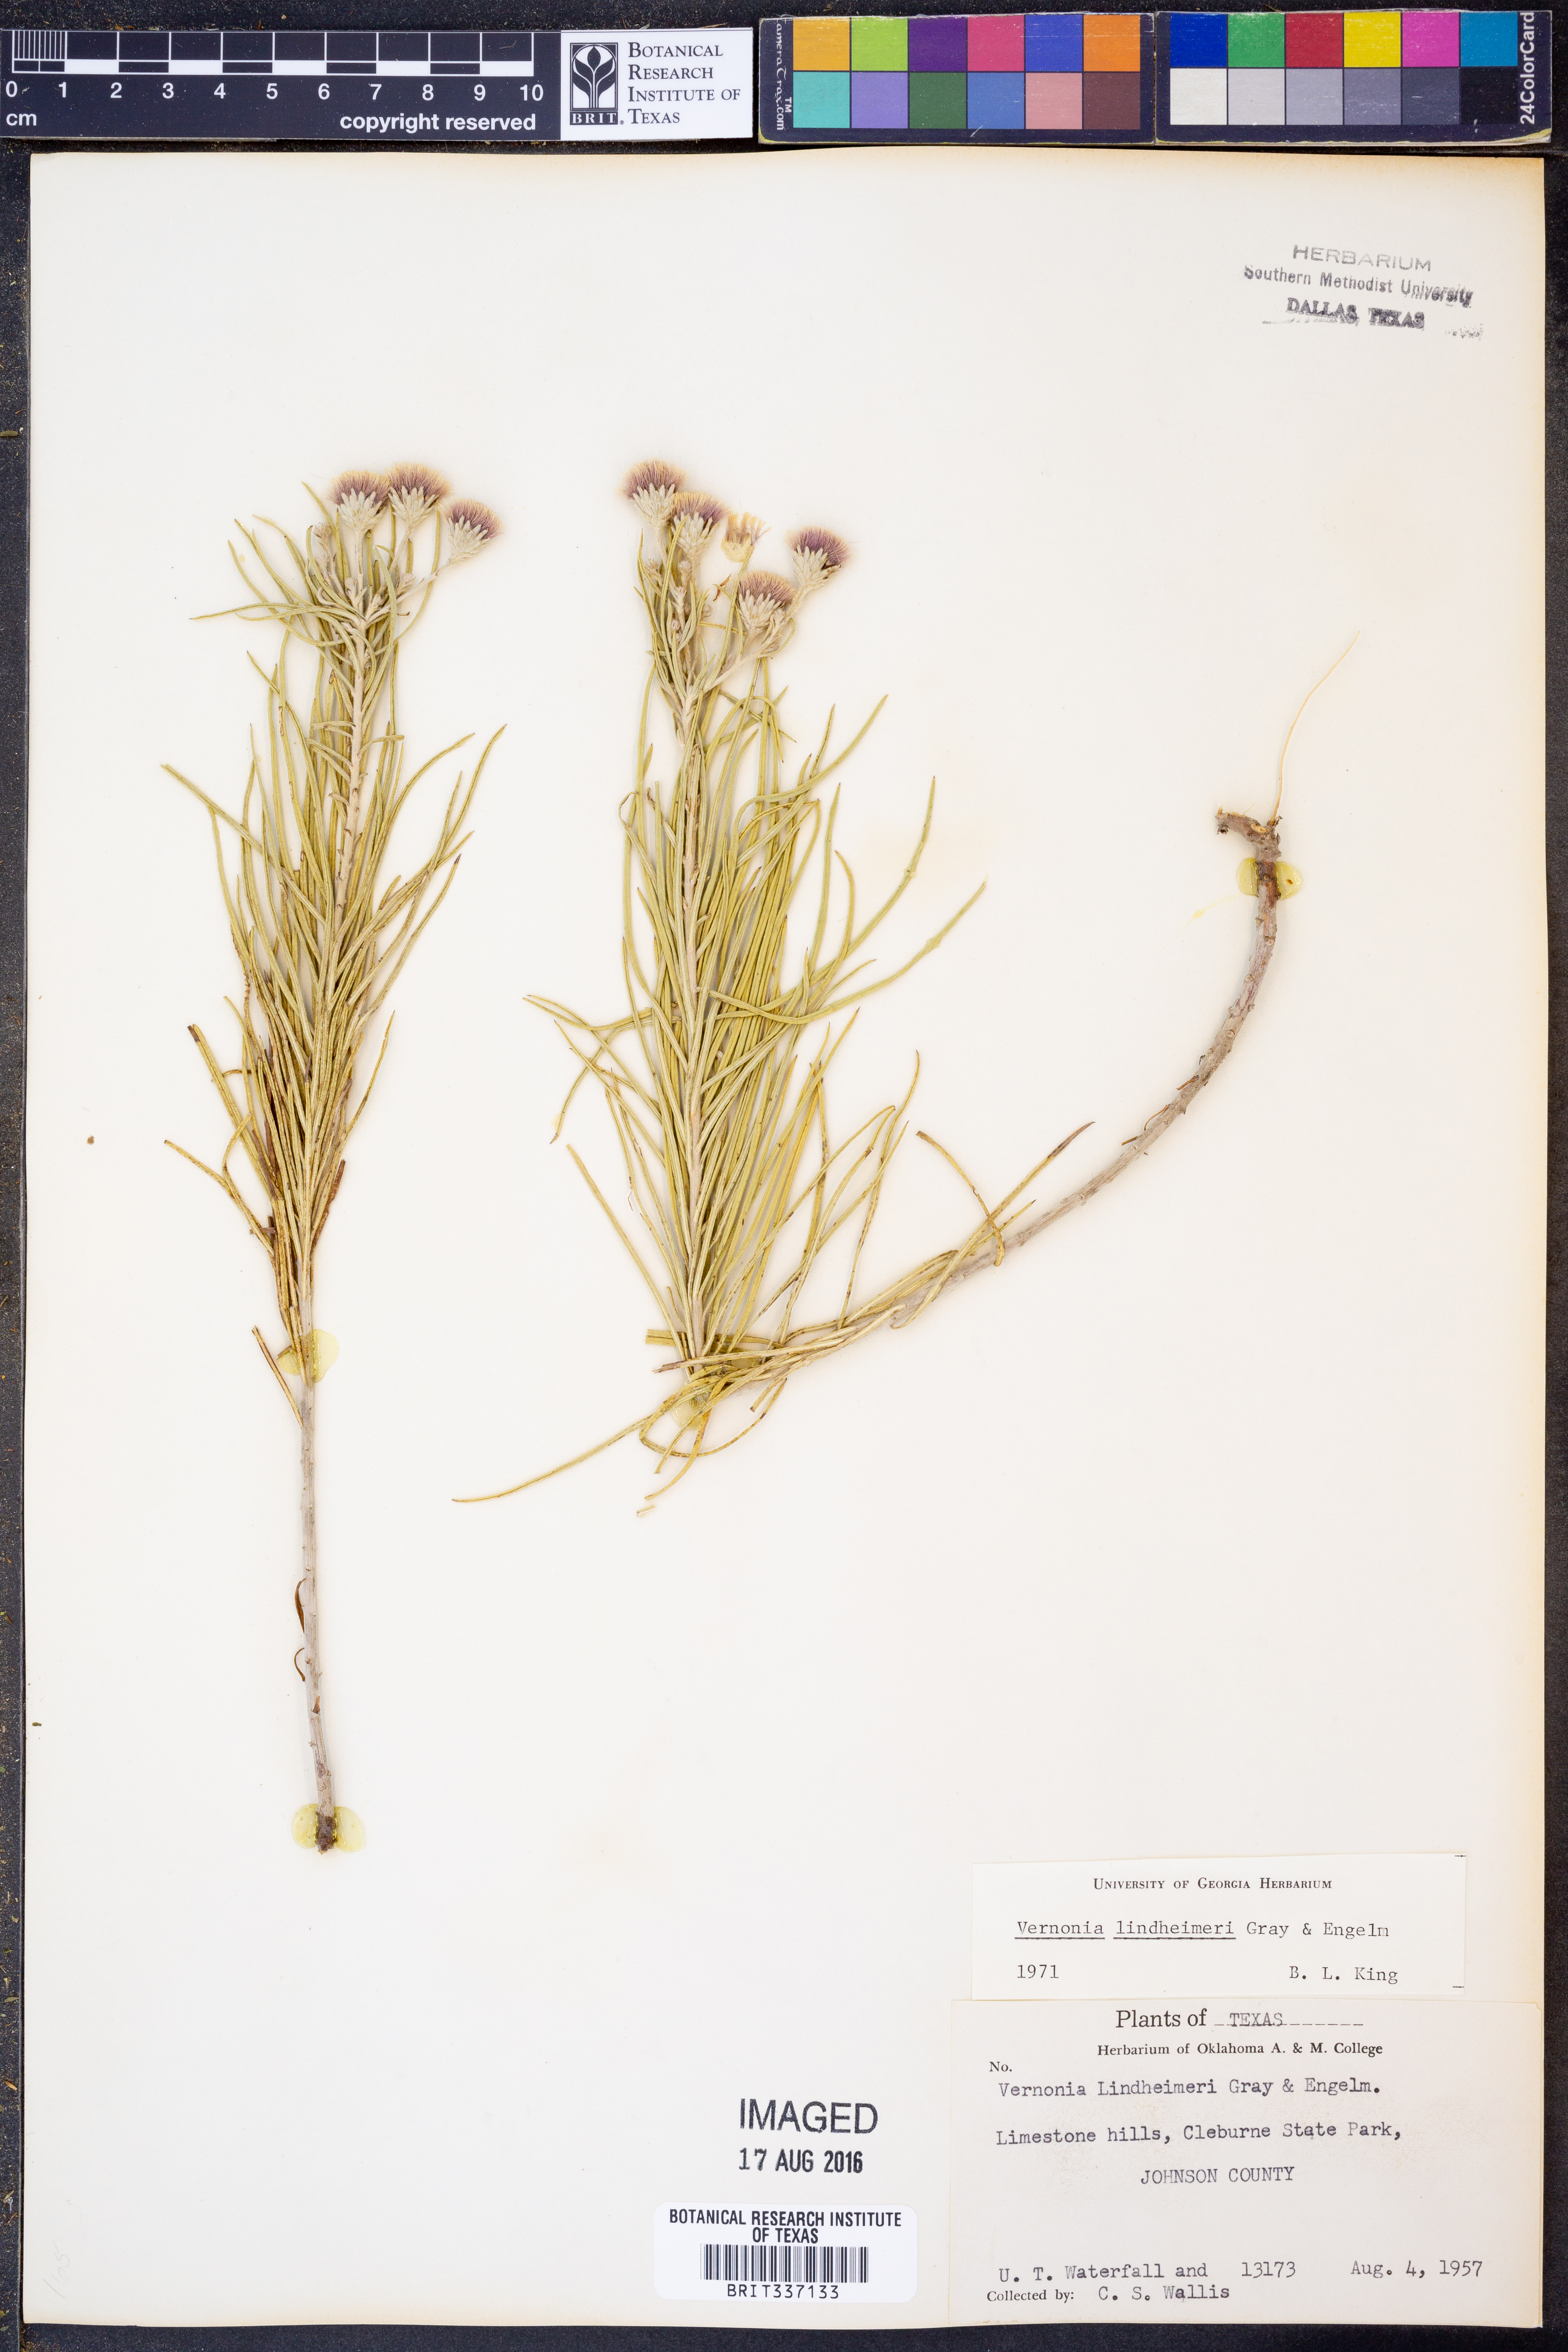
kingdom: Plantae
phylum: Tracheophyta
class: Magnoliopsida
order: Asterales
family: Asteraceae
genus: Vernonia
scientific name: Vernonia lindheimeri
